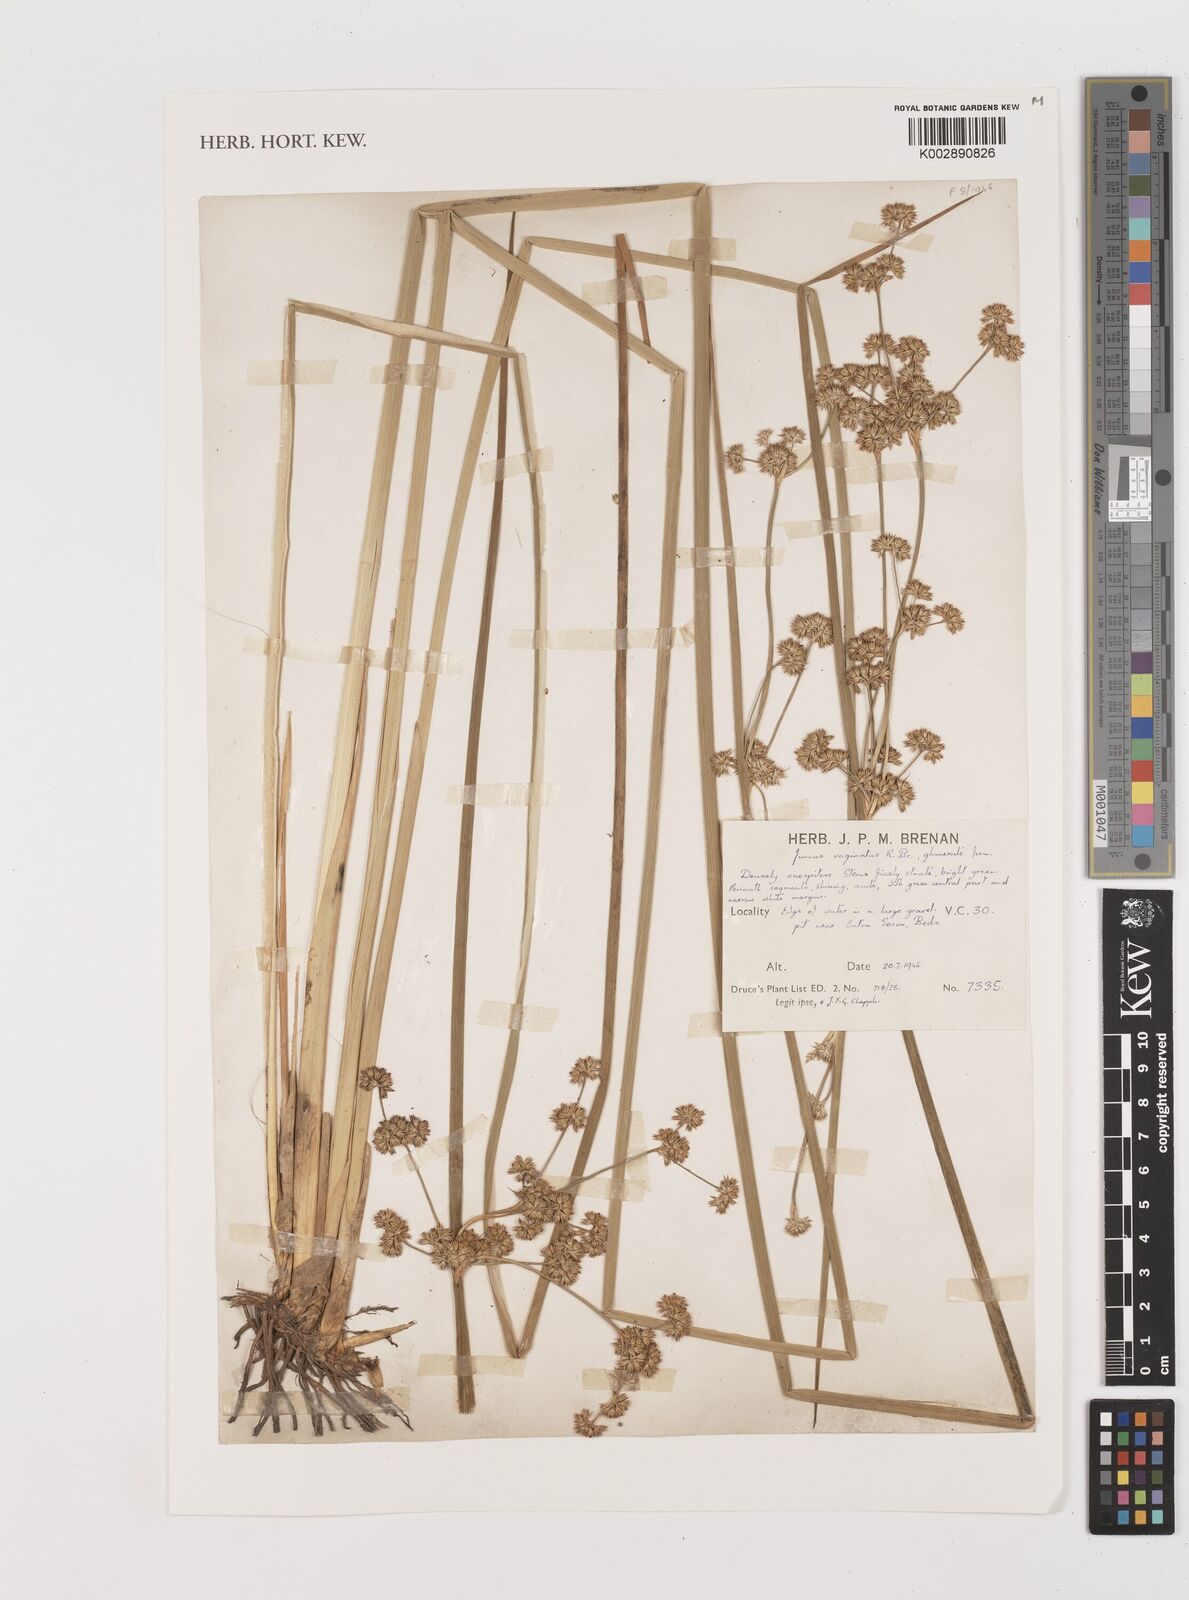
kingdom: Plantae
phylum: Tracheophyta
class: Liliopsida
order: Poales
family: Juncaceae
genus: Juncus
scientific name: Juncus vaginatus
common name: Clustered rush
